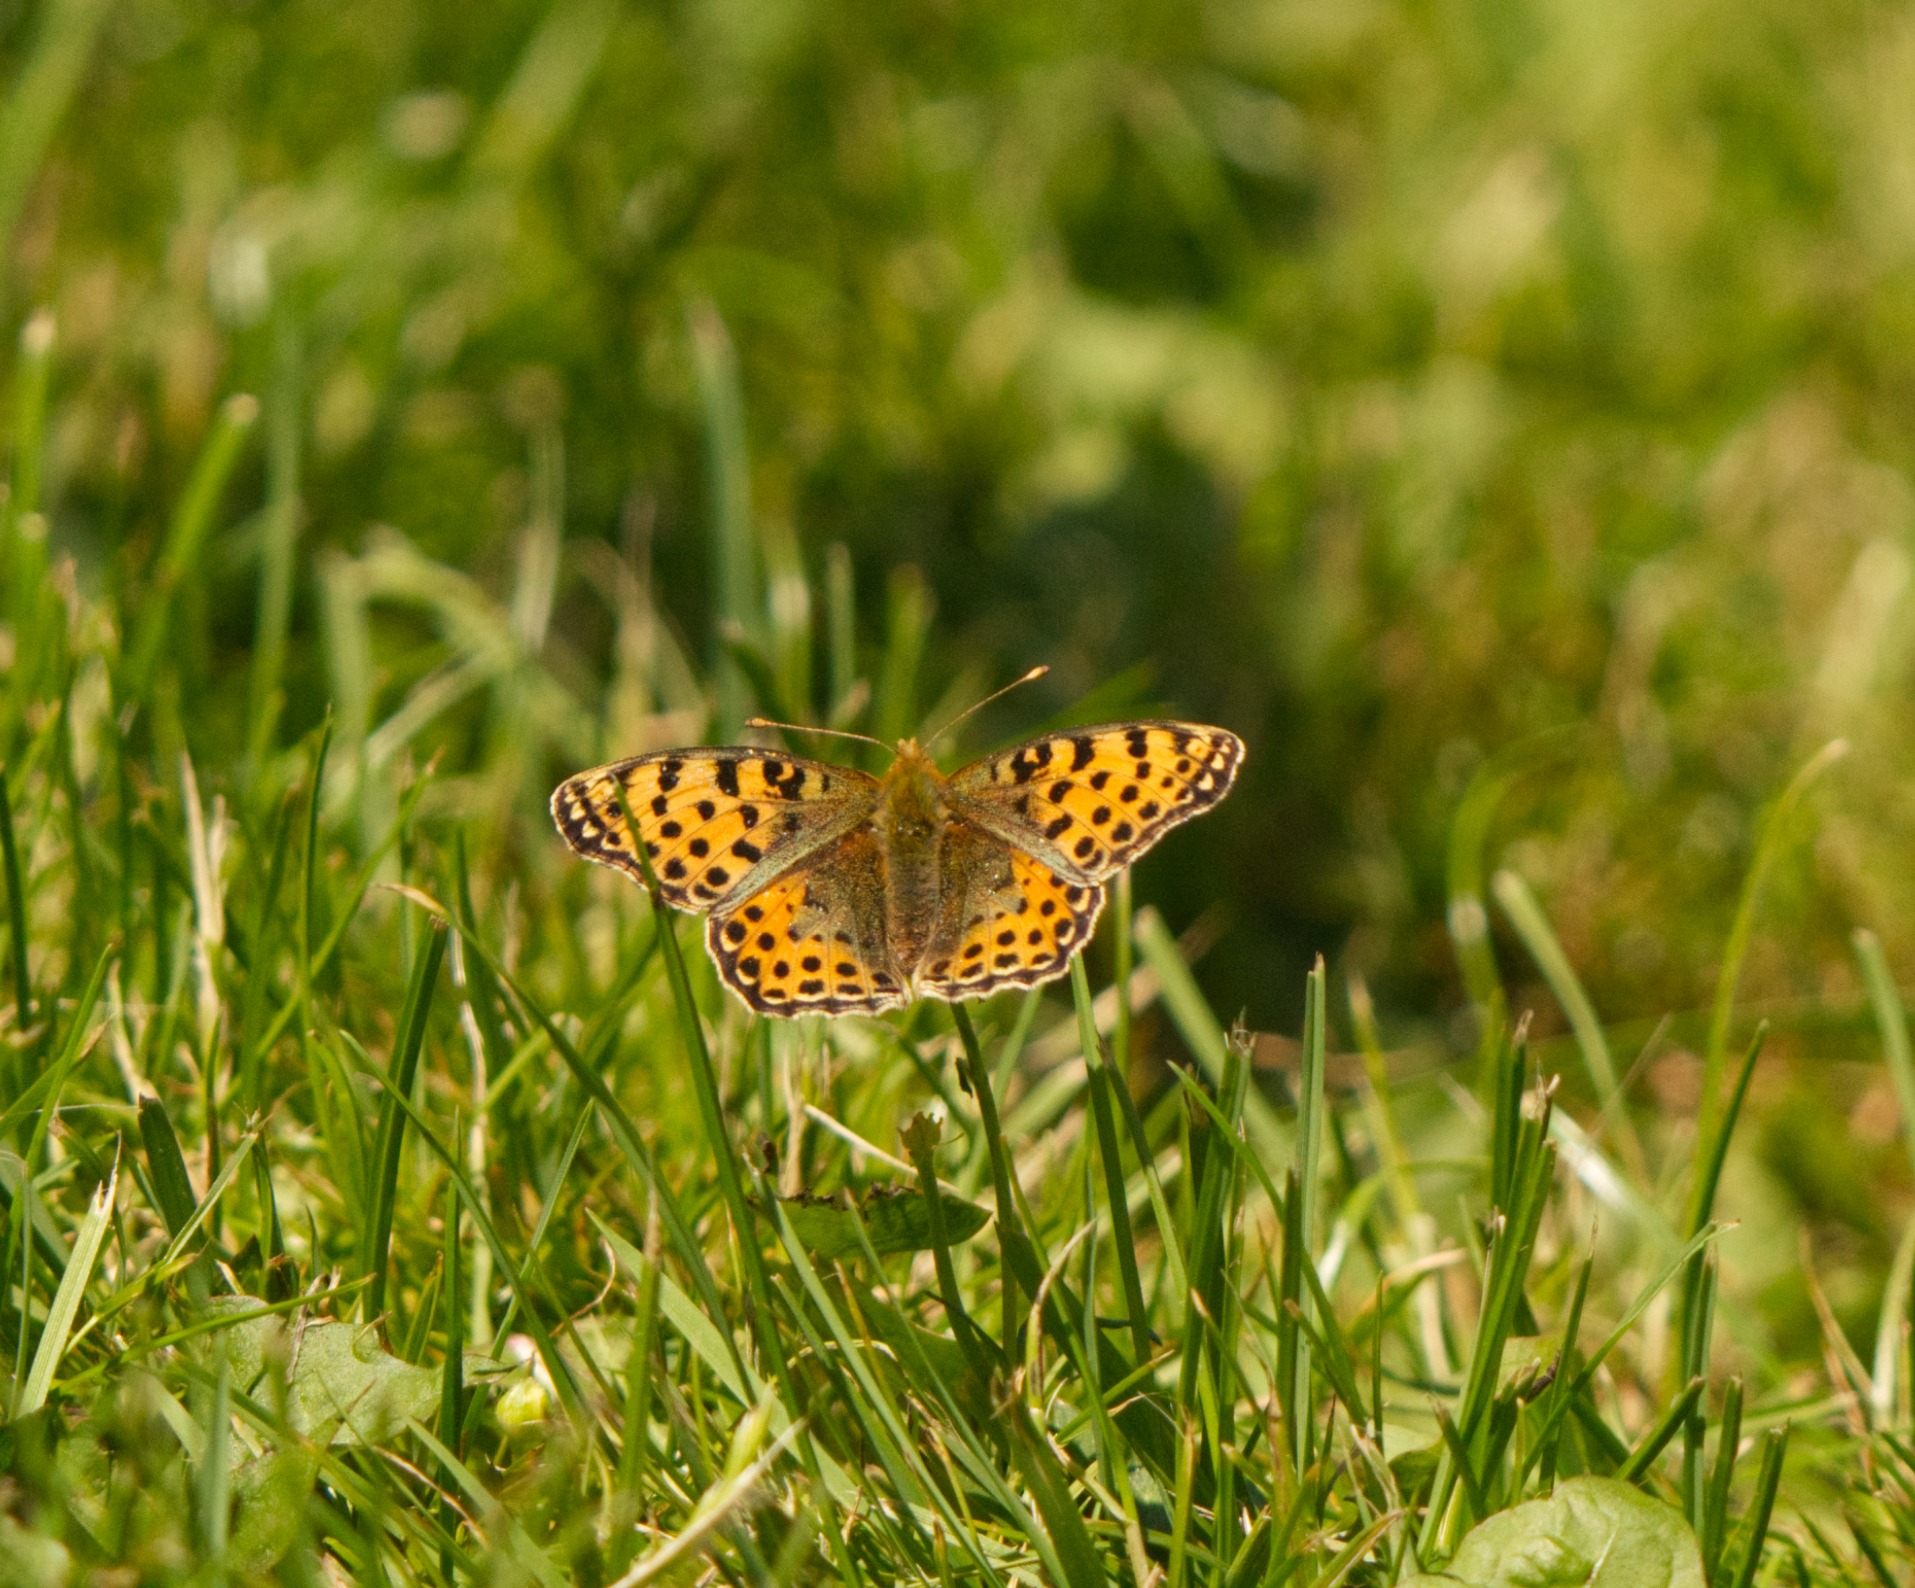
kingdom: Animalia
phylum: Arthropoda
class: Insecta
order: Lepidoptera
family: Nymphalidae
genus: Issoria
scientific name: Issoria lathonia
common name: Storplettet perlemorsommerfugl
